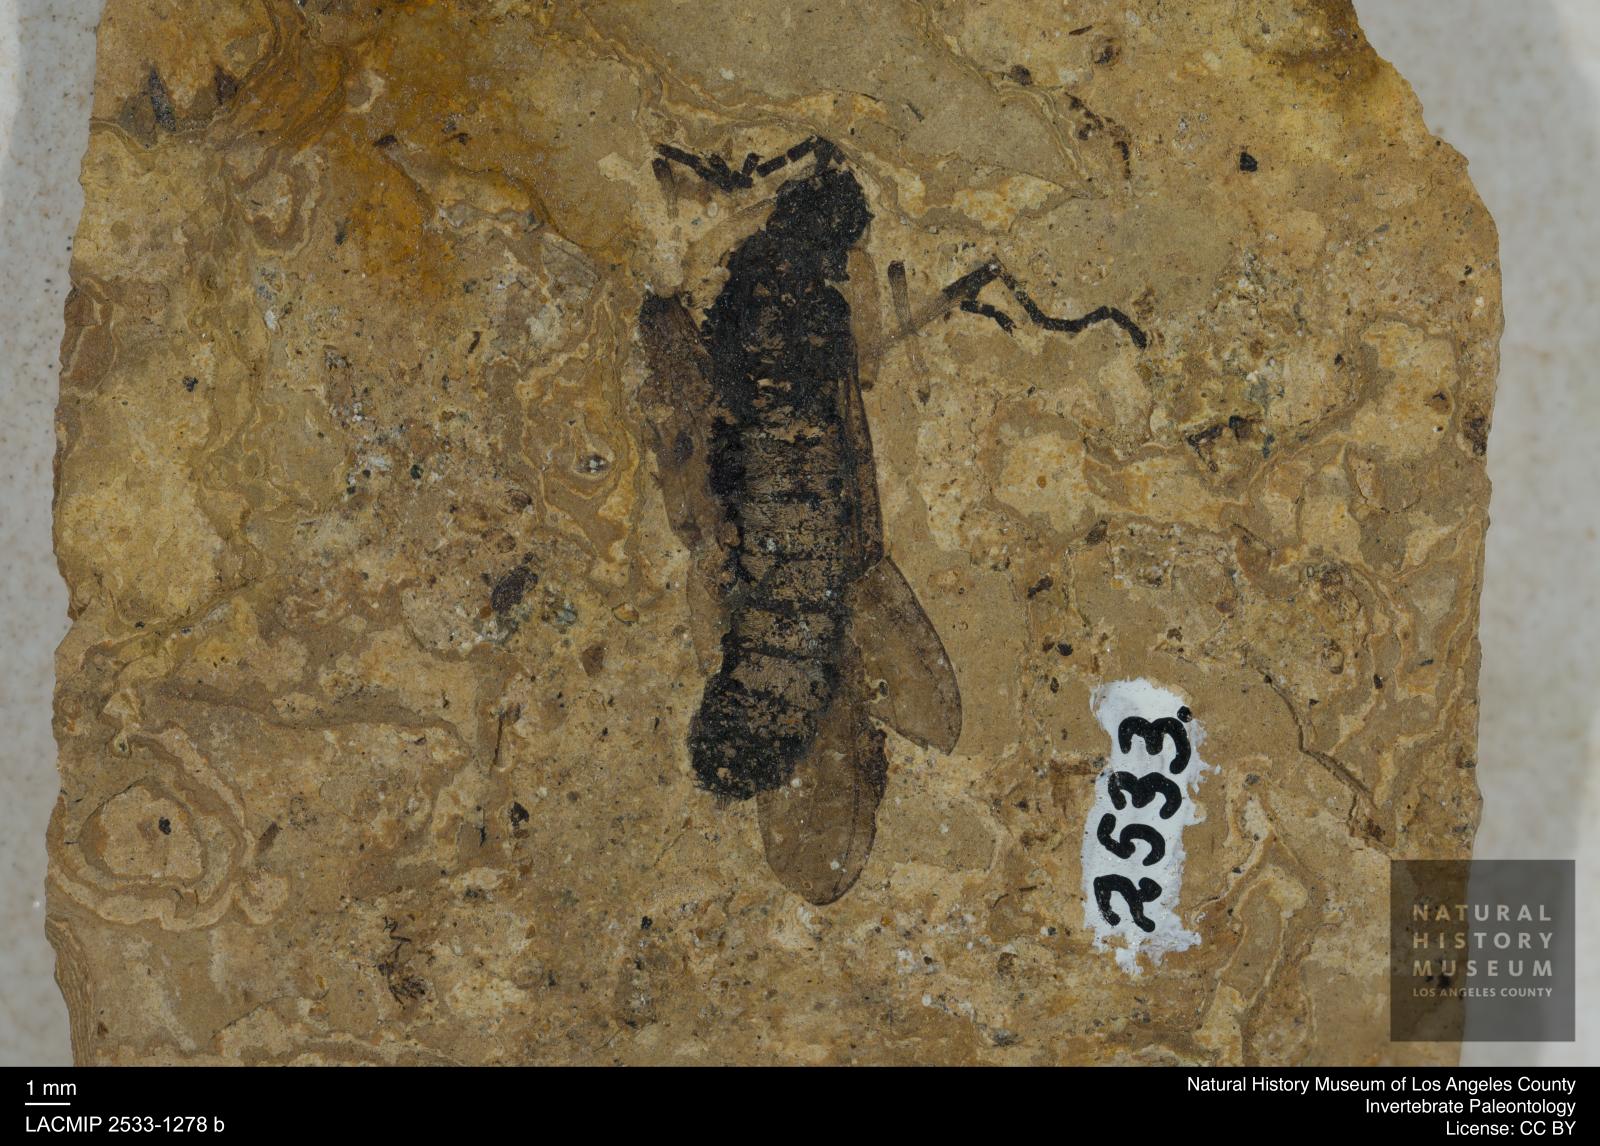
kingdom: Animalia
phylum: Arthropoda
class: Insecta
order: Diptera
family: Bibionidae
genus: Plecia
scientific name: Plecia
